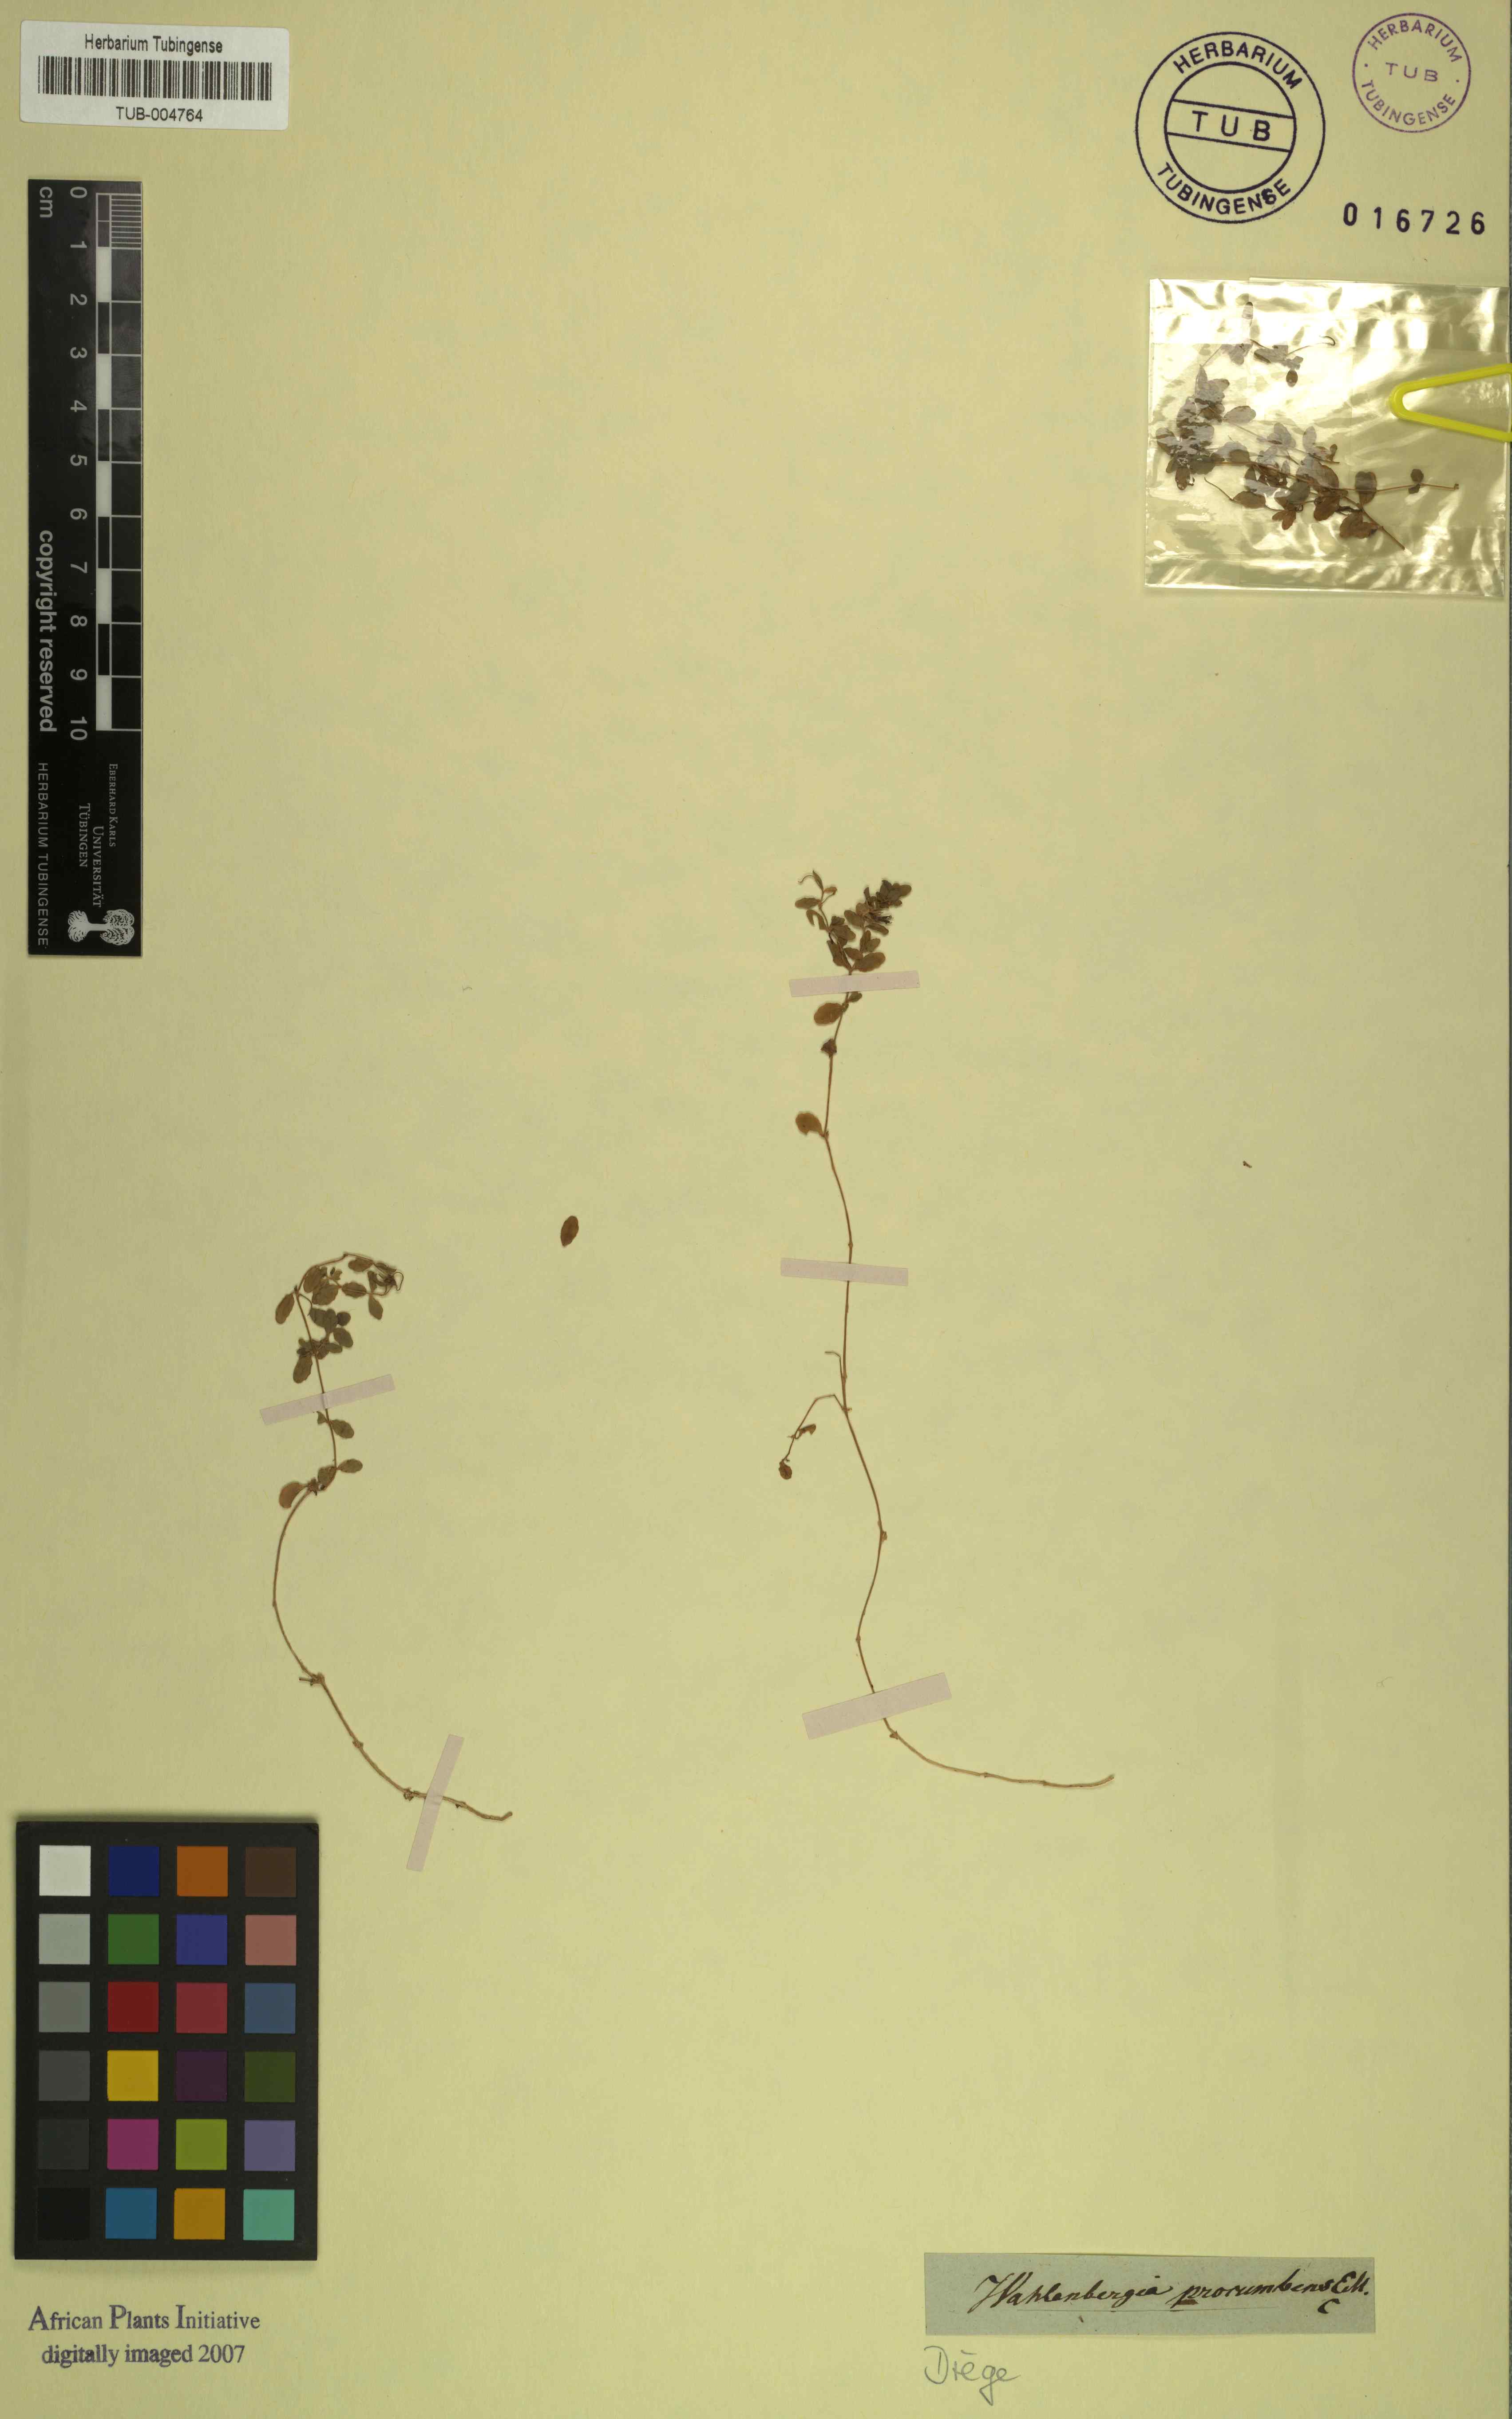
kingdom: Plantae
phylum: Tracheophyta
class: Magnoliopsida
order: Asterales
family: Campanulaceae
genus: Wahlenbergia
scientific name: Wahlenbergia procumbens
